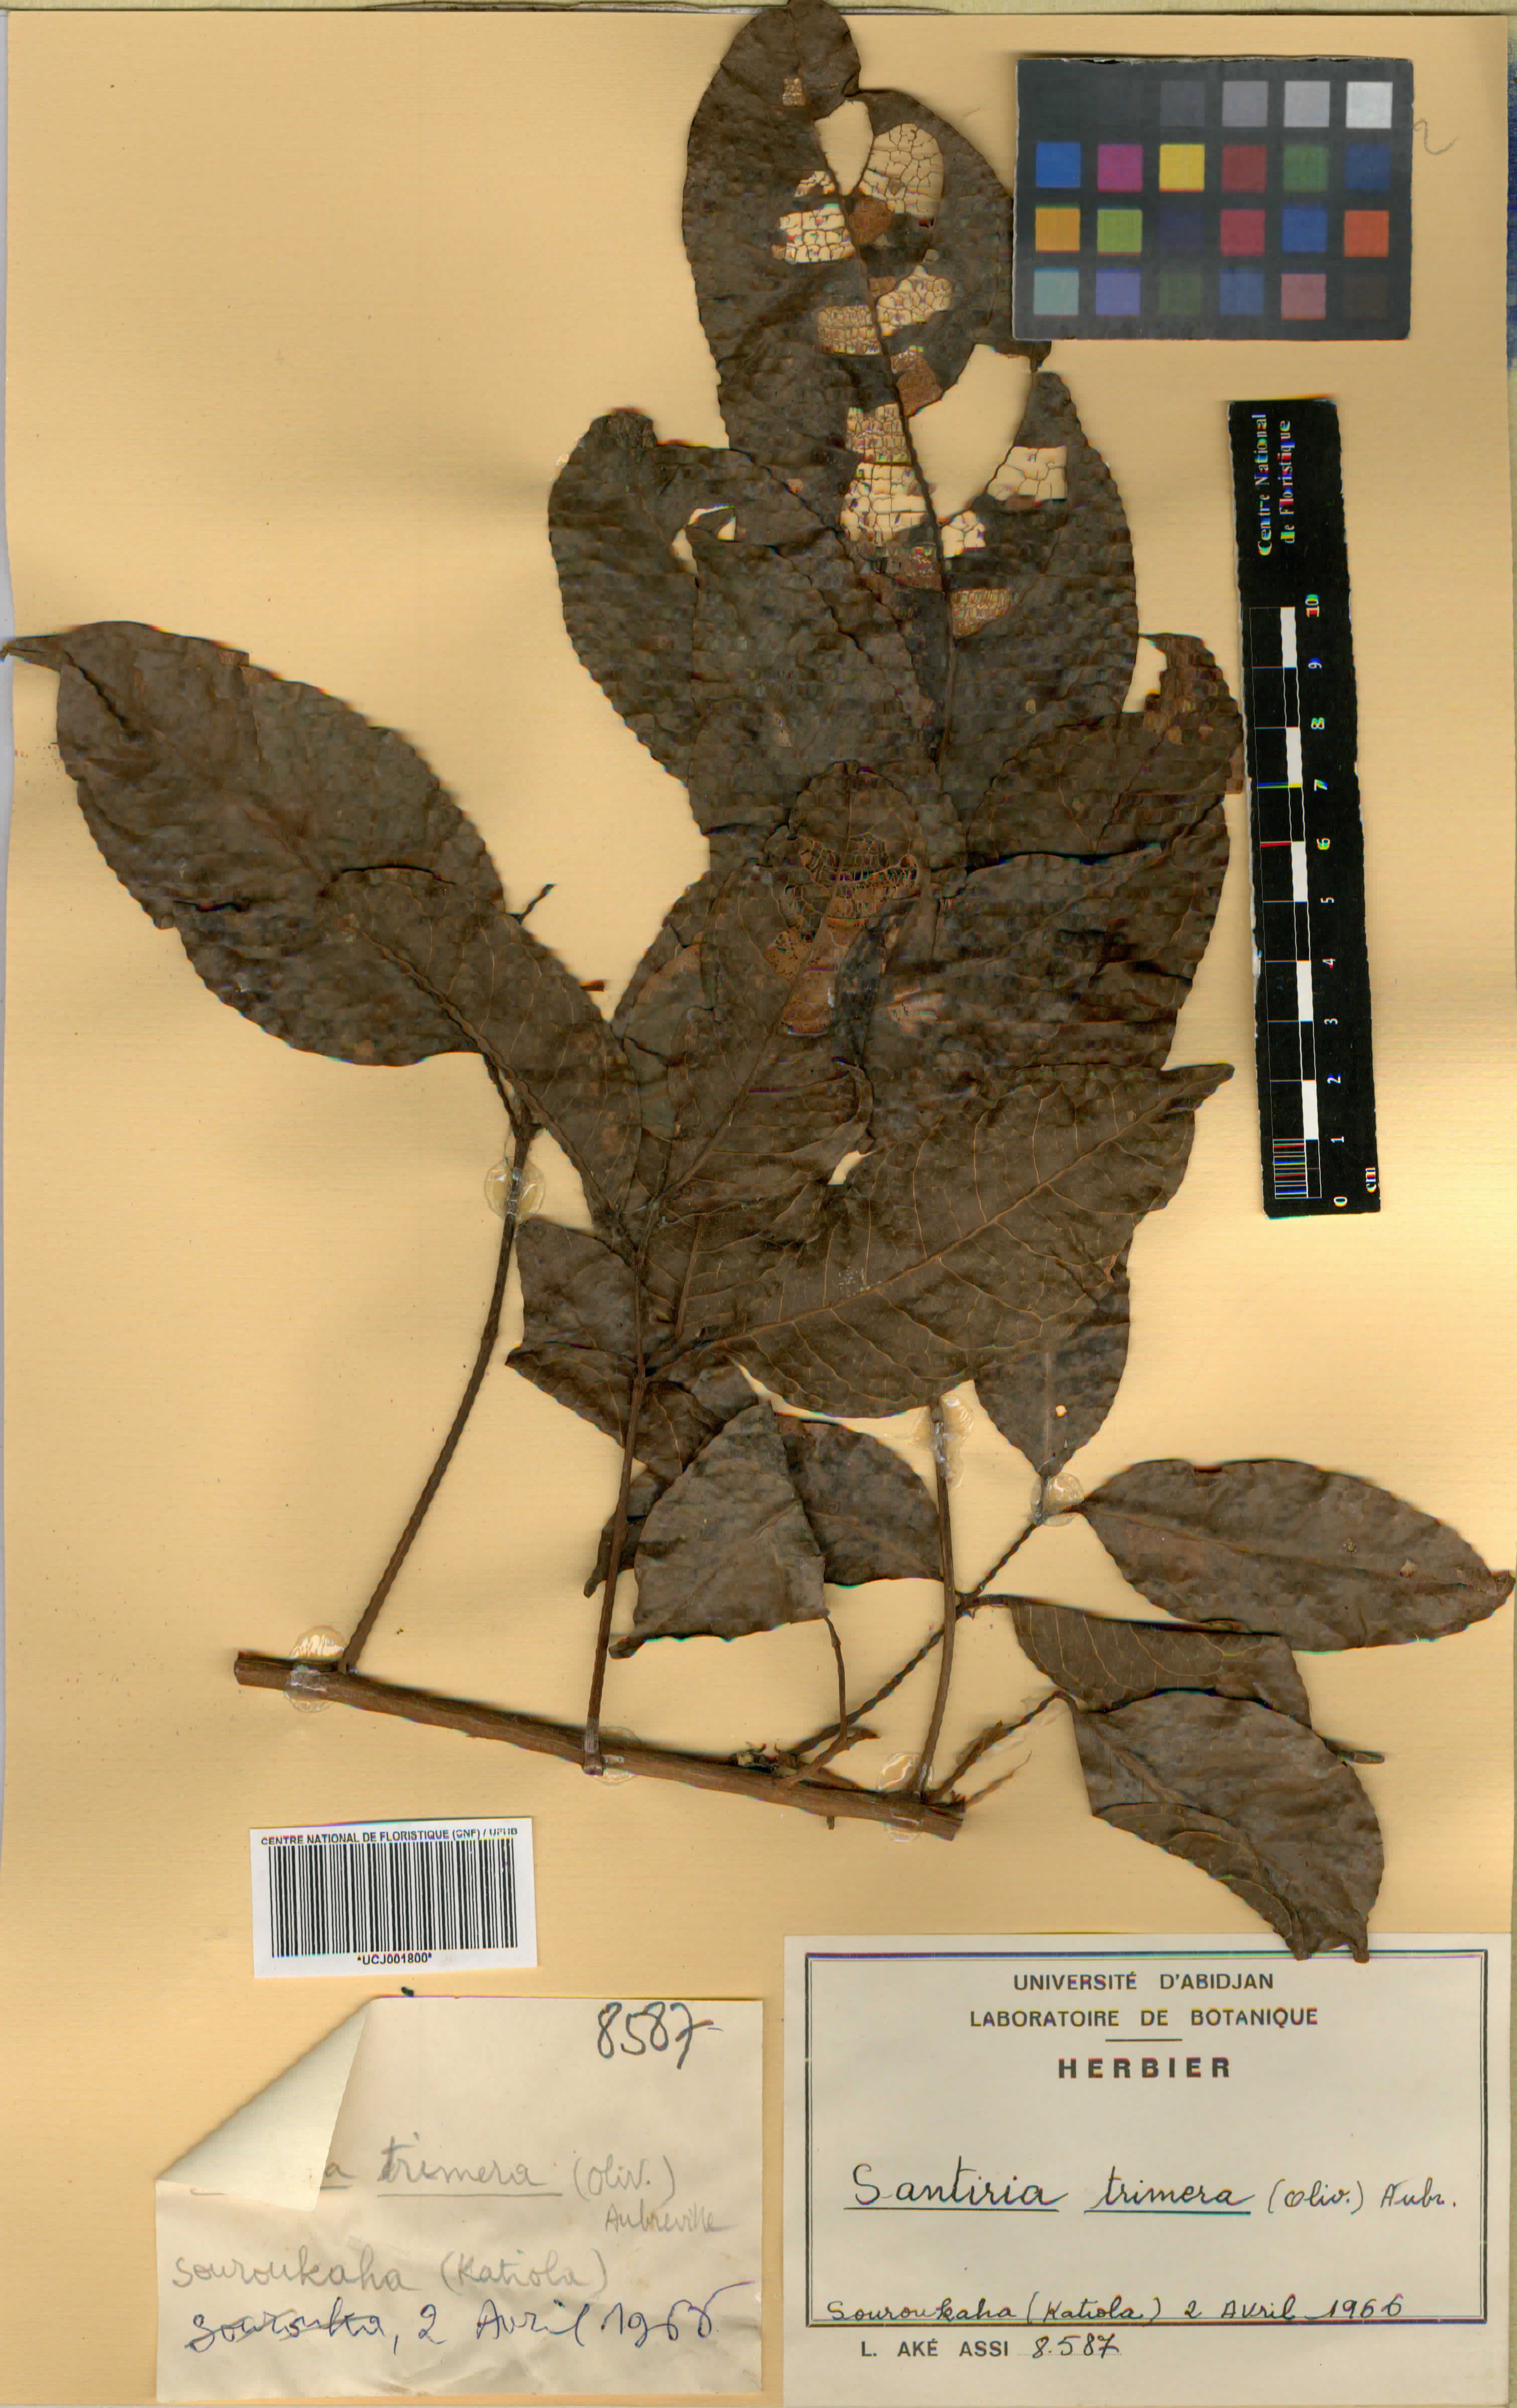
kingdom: Plantae
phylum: Tracheophyta
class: Magnoliopsida
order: Sapindales
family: Burseraceae
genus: Pachylobus
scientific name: Pachylobus trimerus
